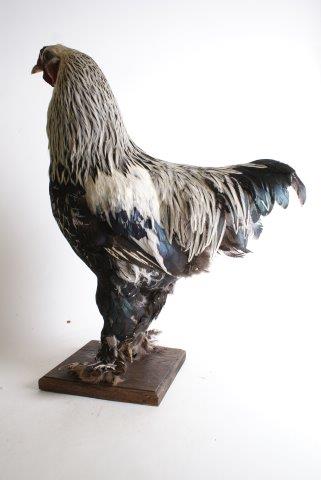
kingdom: Animalia
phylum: Chordata
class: Aves
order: Galliformes
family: Phasianidae
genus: Gallus
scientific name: Gallus gallus
